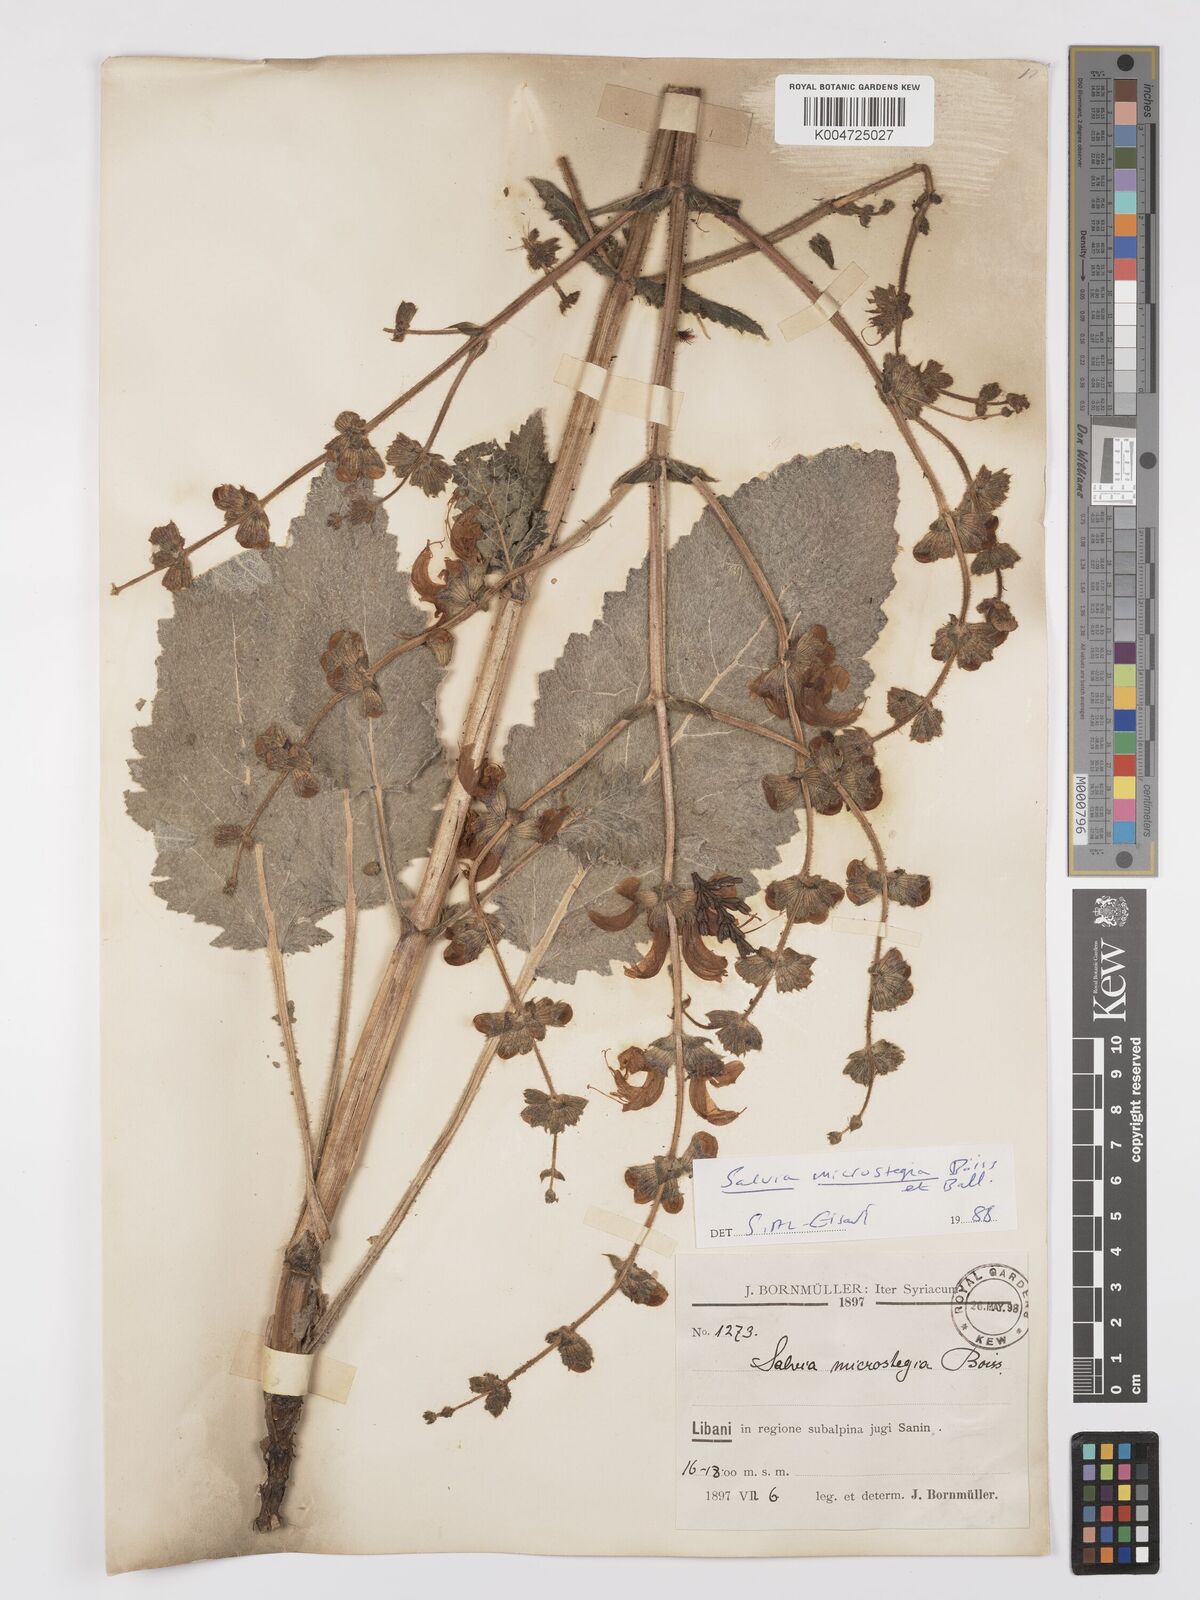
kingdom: Plantae
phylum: Tracheophyta
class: Magnoliopsida
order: Lamiales
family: Lamiaceae
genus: Salvia
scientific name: Salvia verbascifolia
